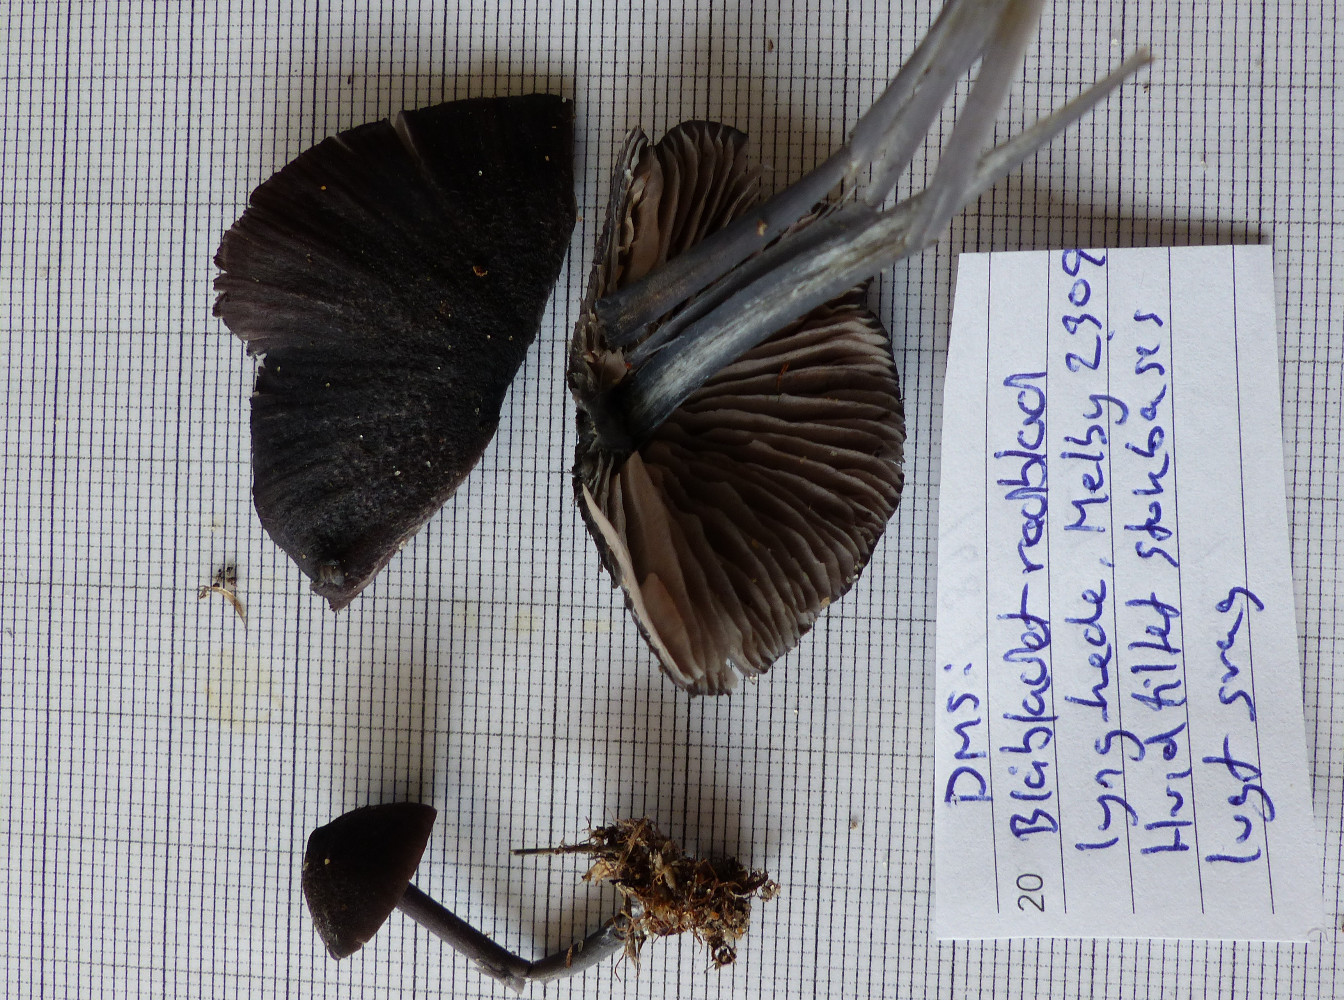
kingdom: Fungi
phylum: Basidiomycota
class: Agaricomycetes
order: Agaricales
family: Entolomataceae
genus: Entoloma
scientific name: Entoloma chalybeum
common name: blåbladet rødblad
